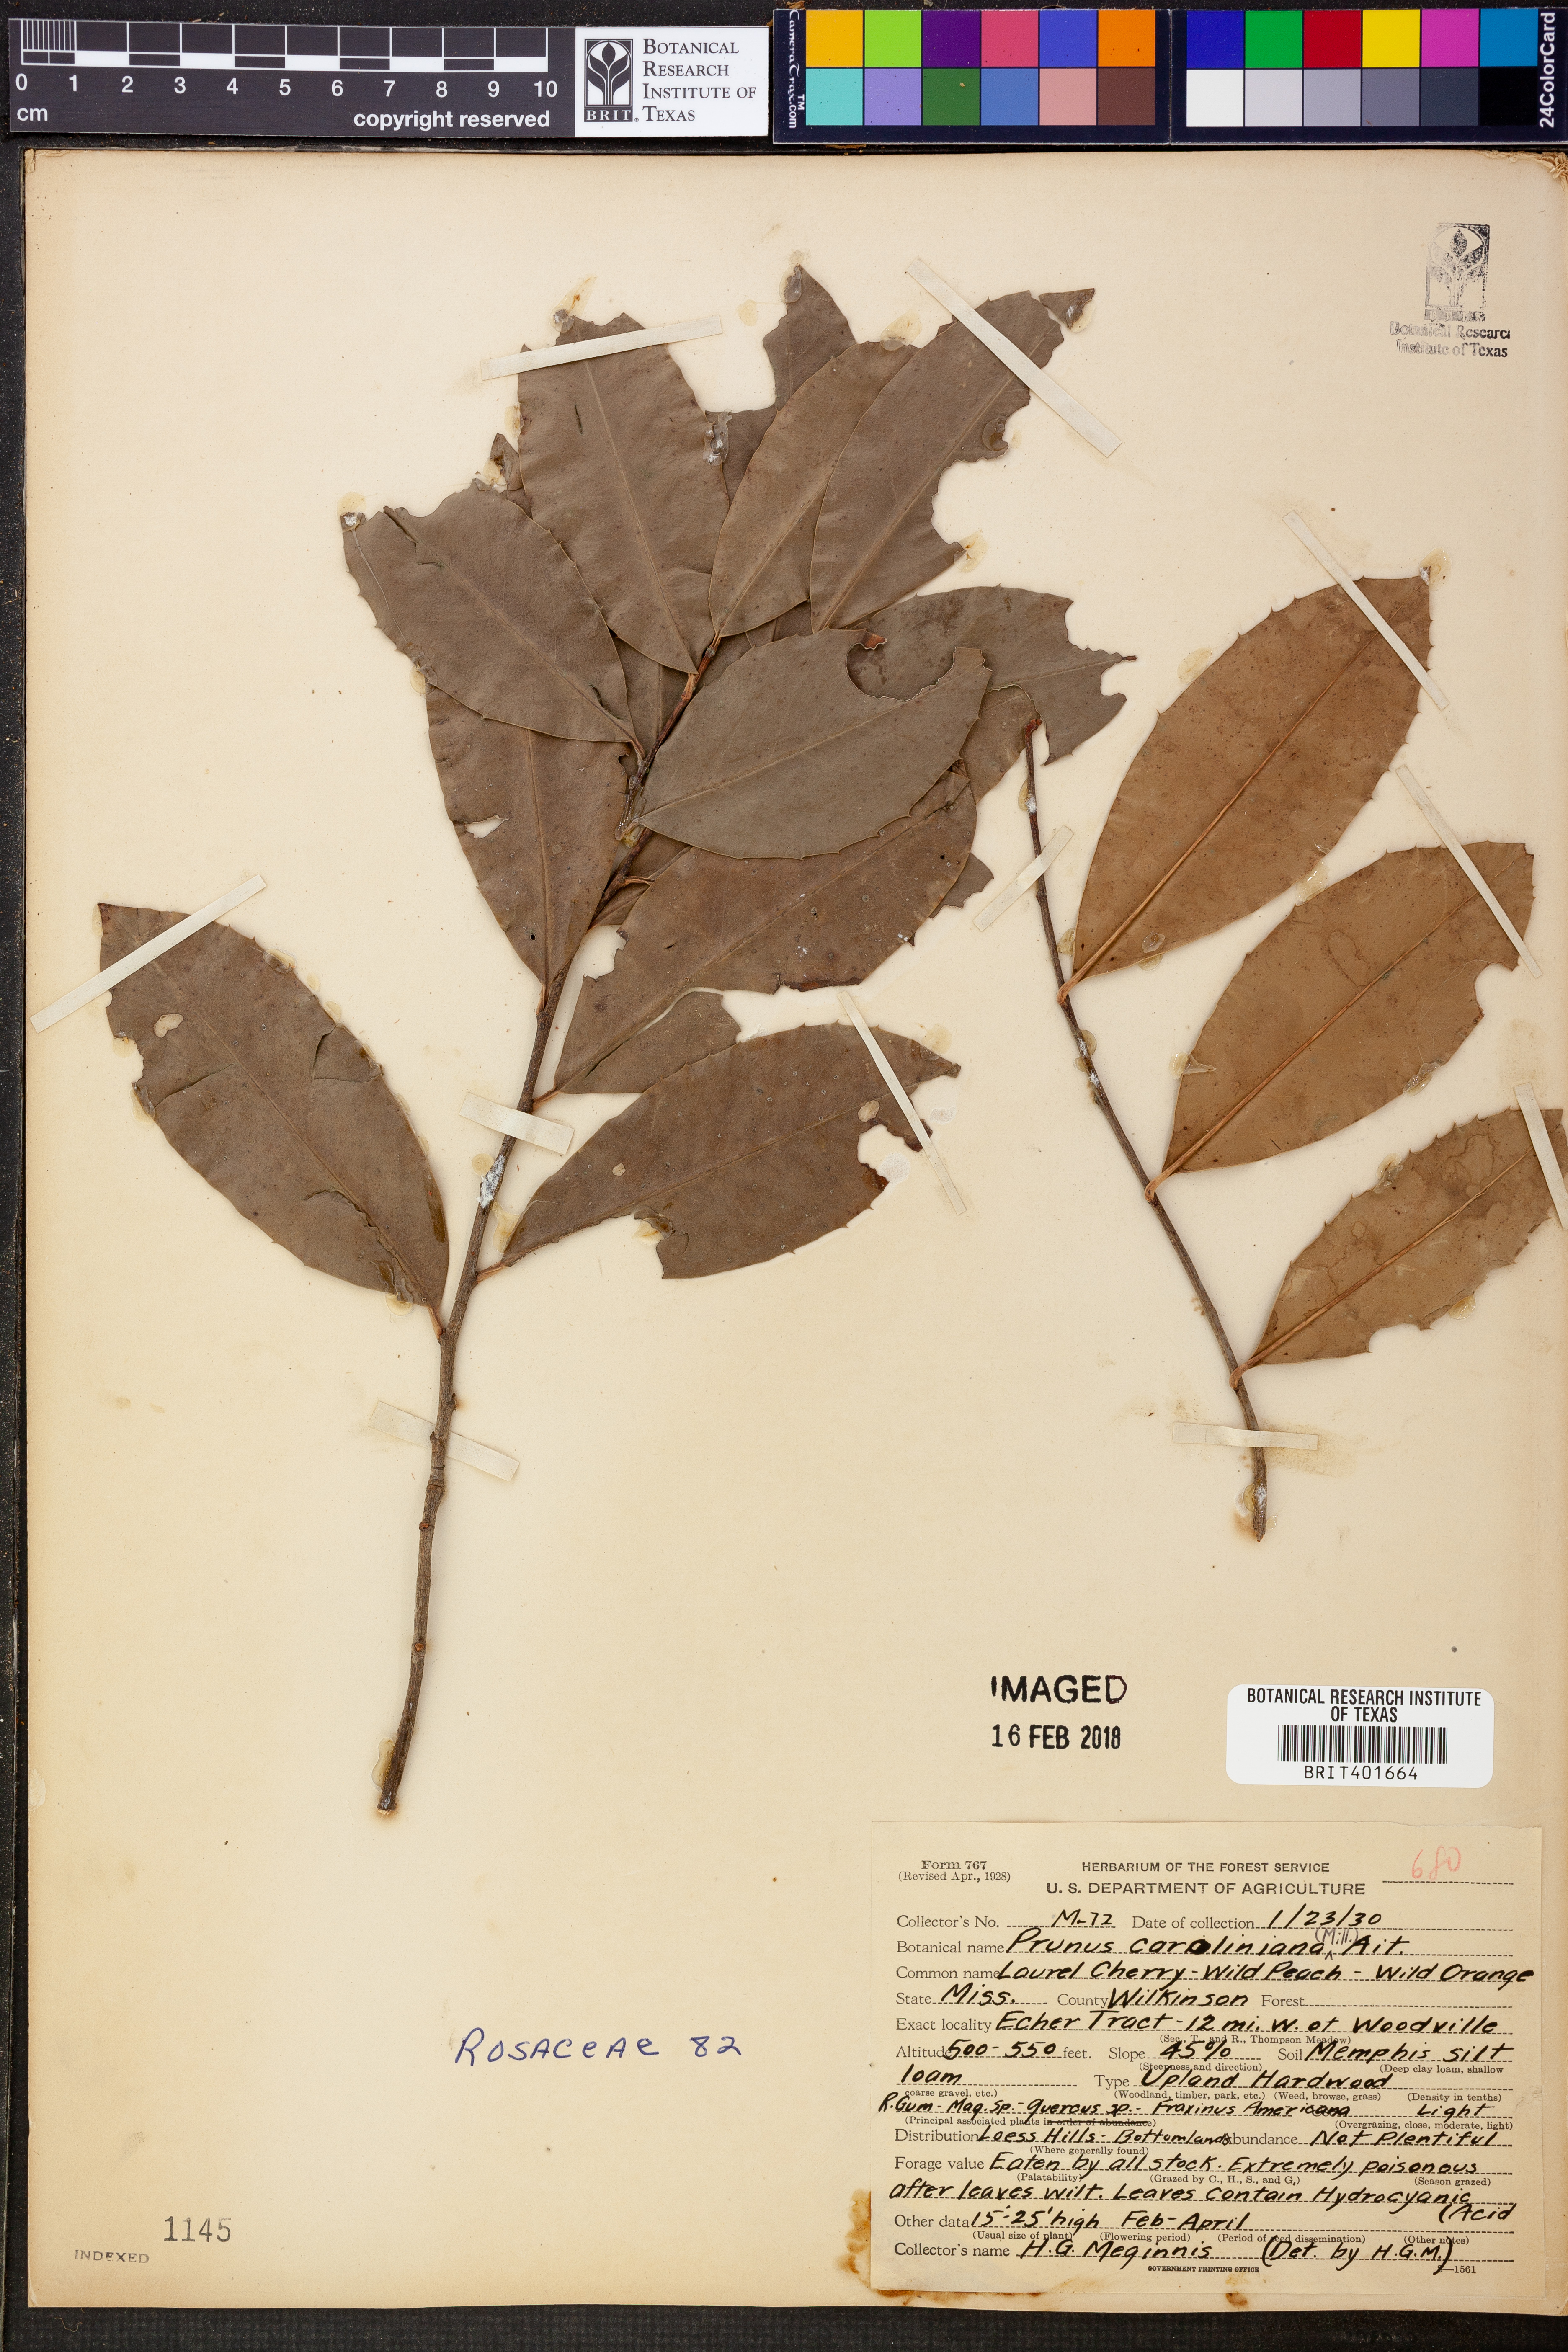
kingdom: Plantae
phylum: Tracheophyta
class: Magnoliopsida
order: Rosales
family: Rosaceae
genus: Prunus
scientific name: Prunus caroliniana
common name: Carolina laurel cherry
